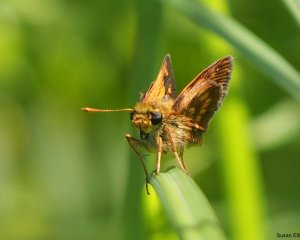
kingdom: Animalia
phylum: Arthropoda
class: Insecta
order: Lepidoptera
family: Hesperiidae
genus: Polites
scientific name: Polites
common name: Long Dash Skipper
